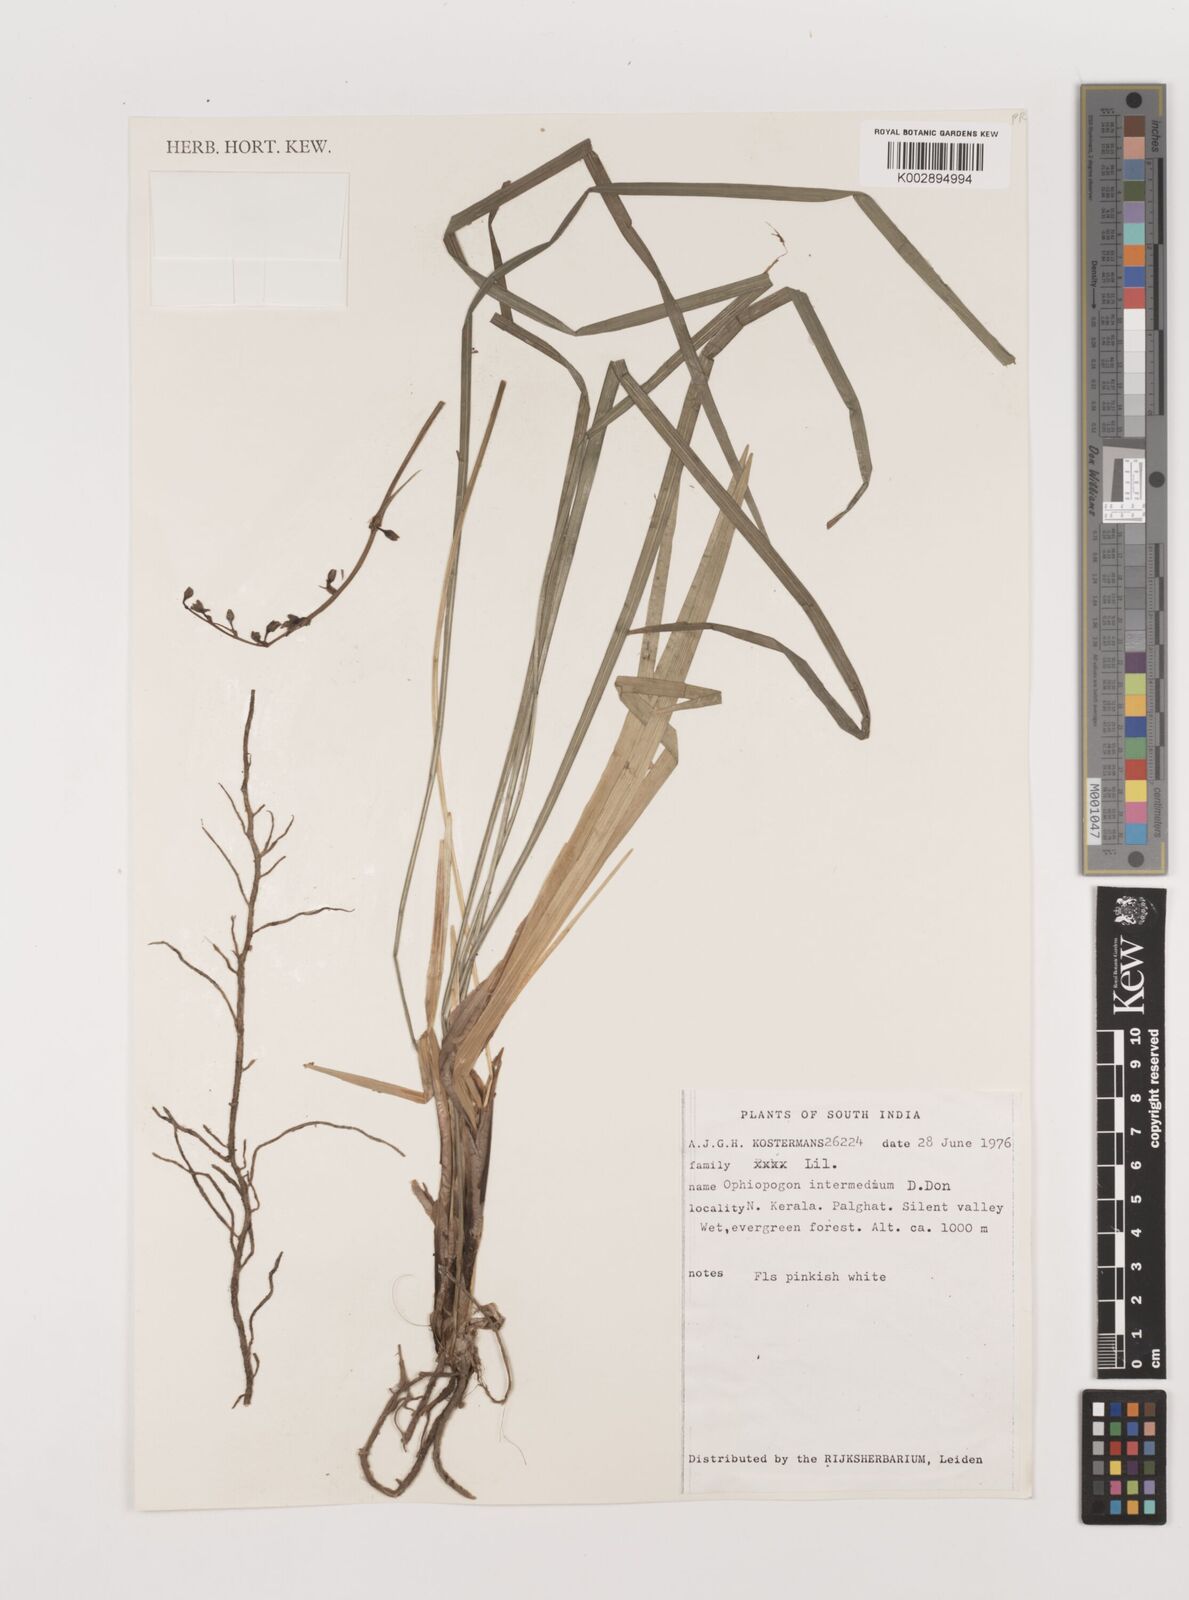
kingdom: Plantae
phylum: Tracheophyta
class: Liliopsida
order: Asparagales
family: Asparagaceae
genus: Ophiopogon
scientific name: Ophiopogon intermedius
